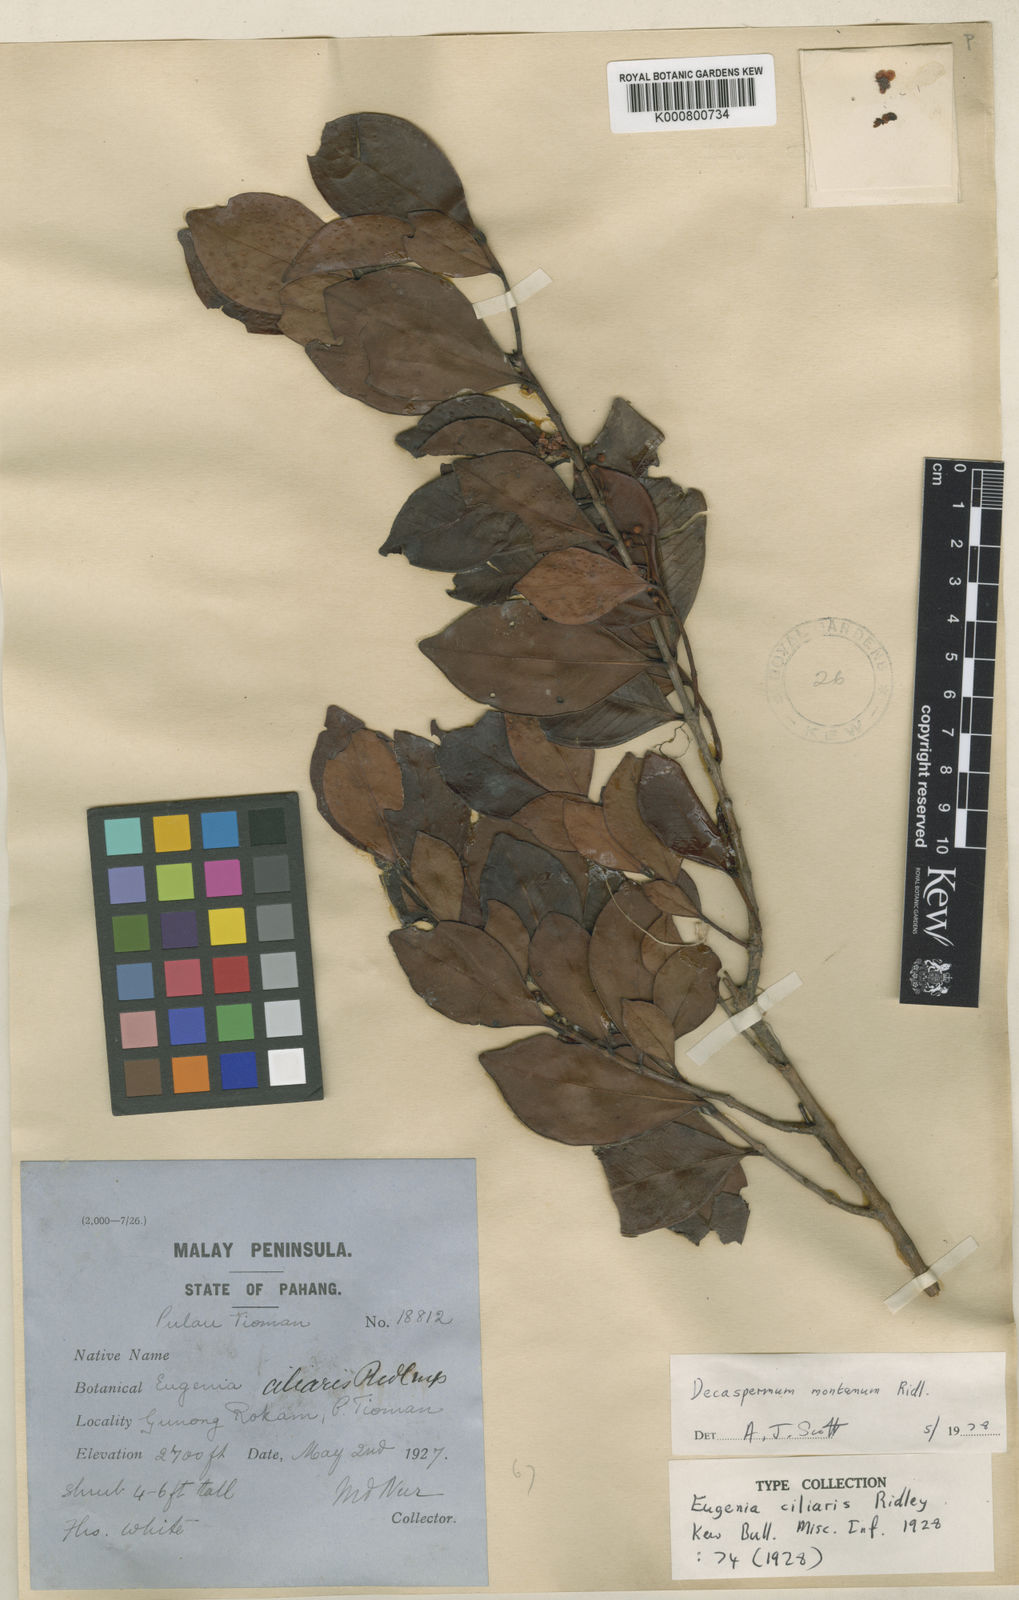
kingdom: Plantae
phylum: Tracheophyta
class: Magnoliopsida
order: Myrtales
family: Myrtaceae
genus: Decaspermum
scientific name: Decaspermum montanum
